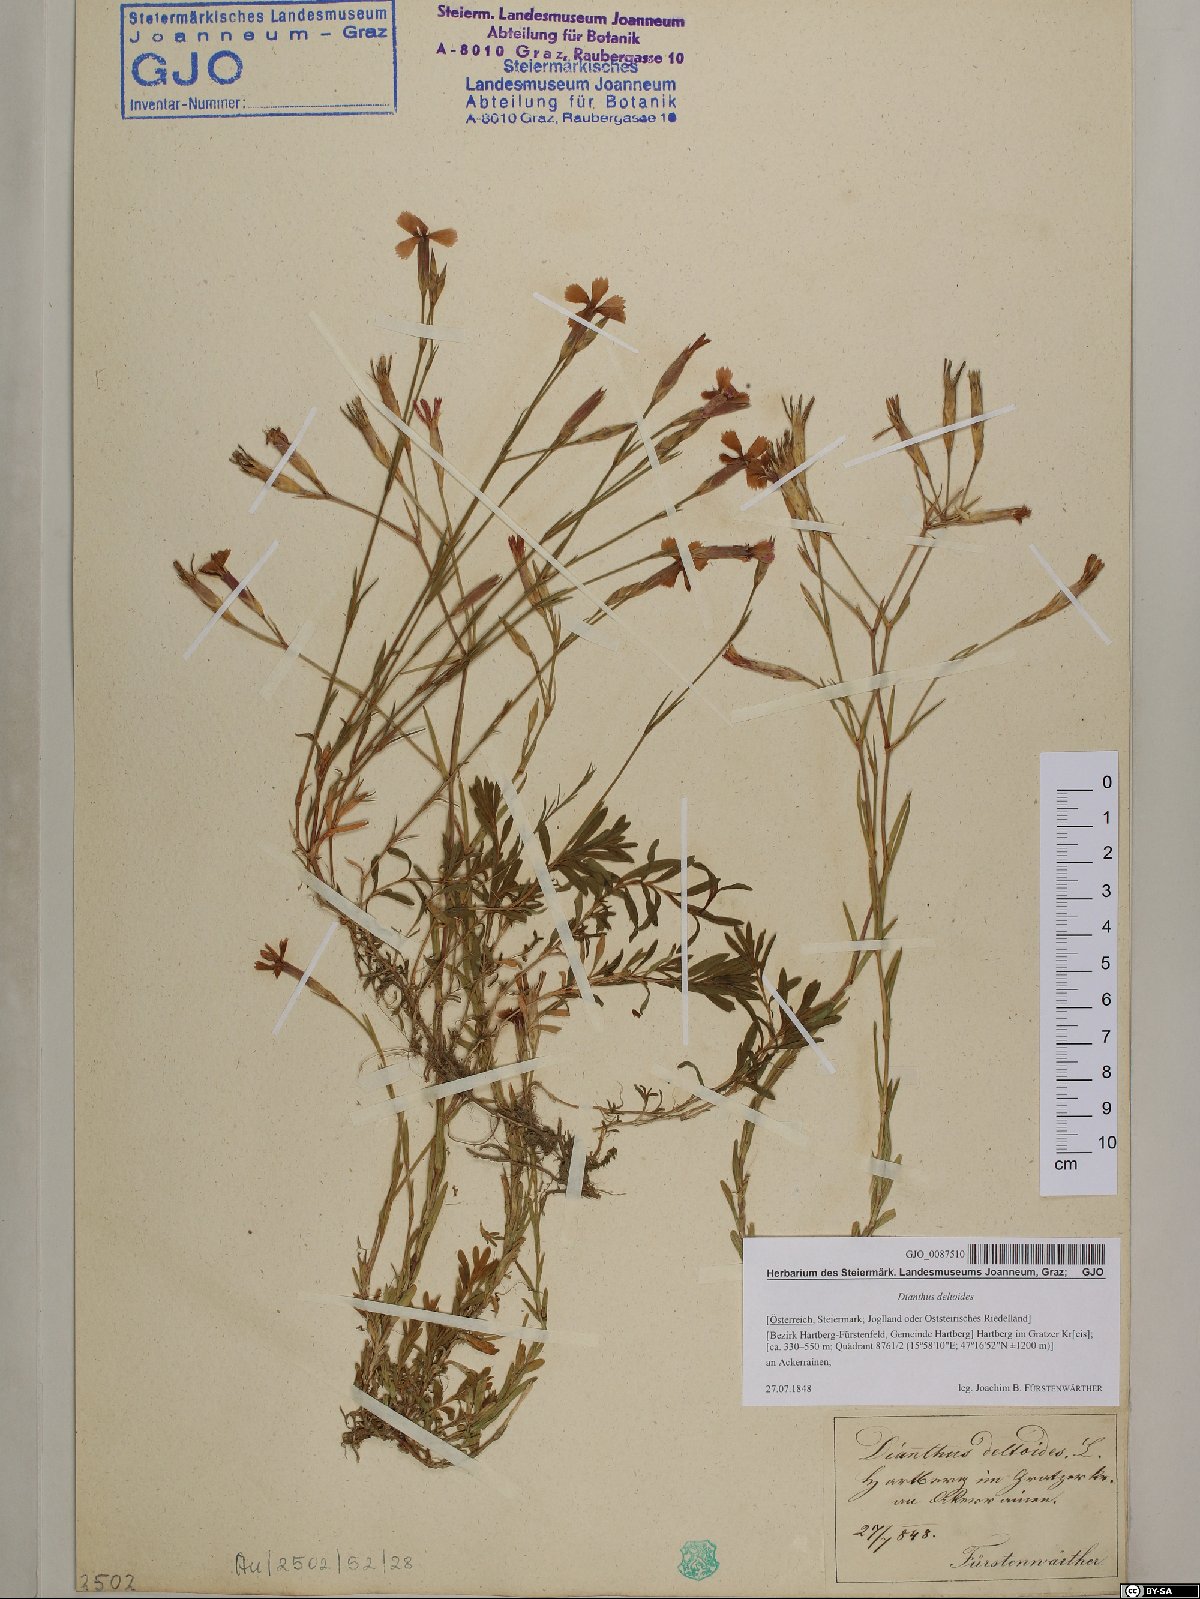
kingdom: Plantae
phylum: Tracheophyta
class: Magnoliopsida
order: Caryophyllales
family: Caryophyllaceae
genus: Dianthus
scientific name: Dianthus deltoides
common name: Maiden pink
